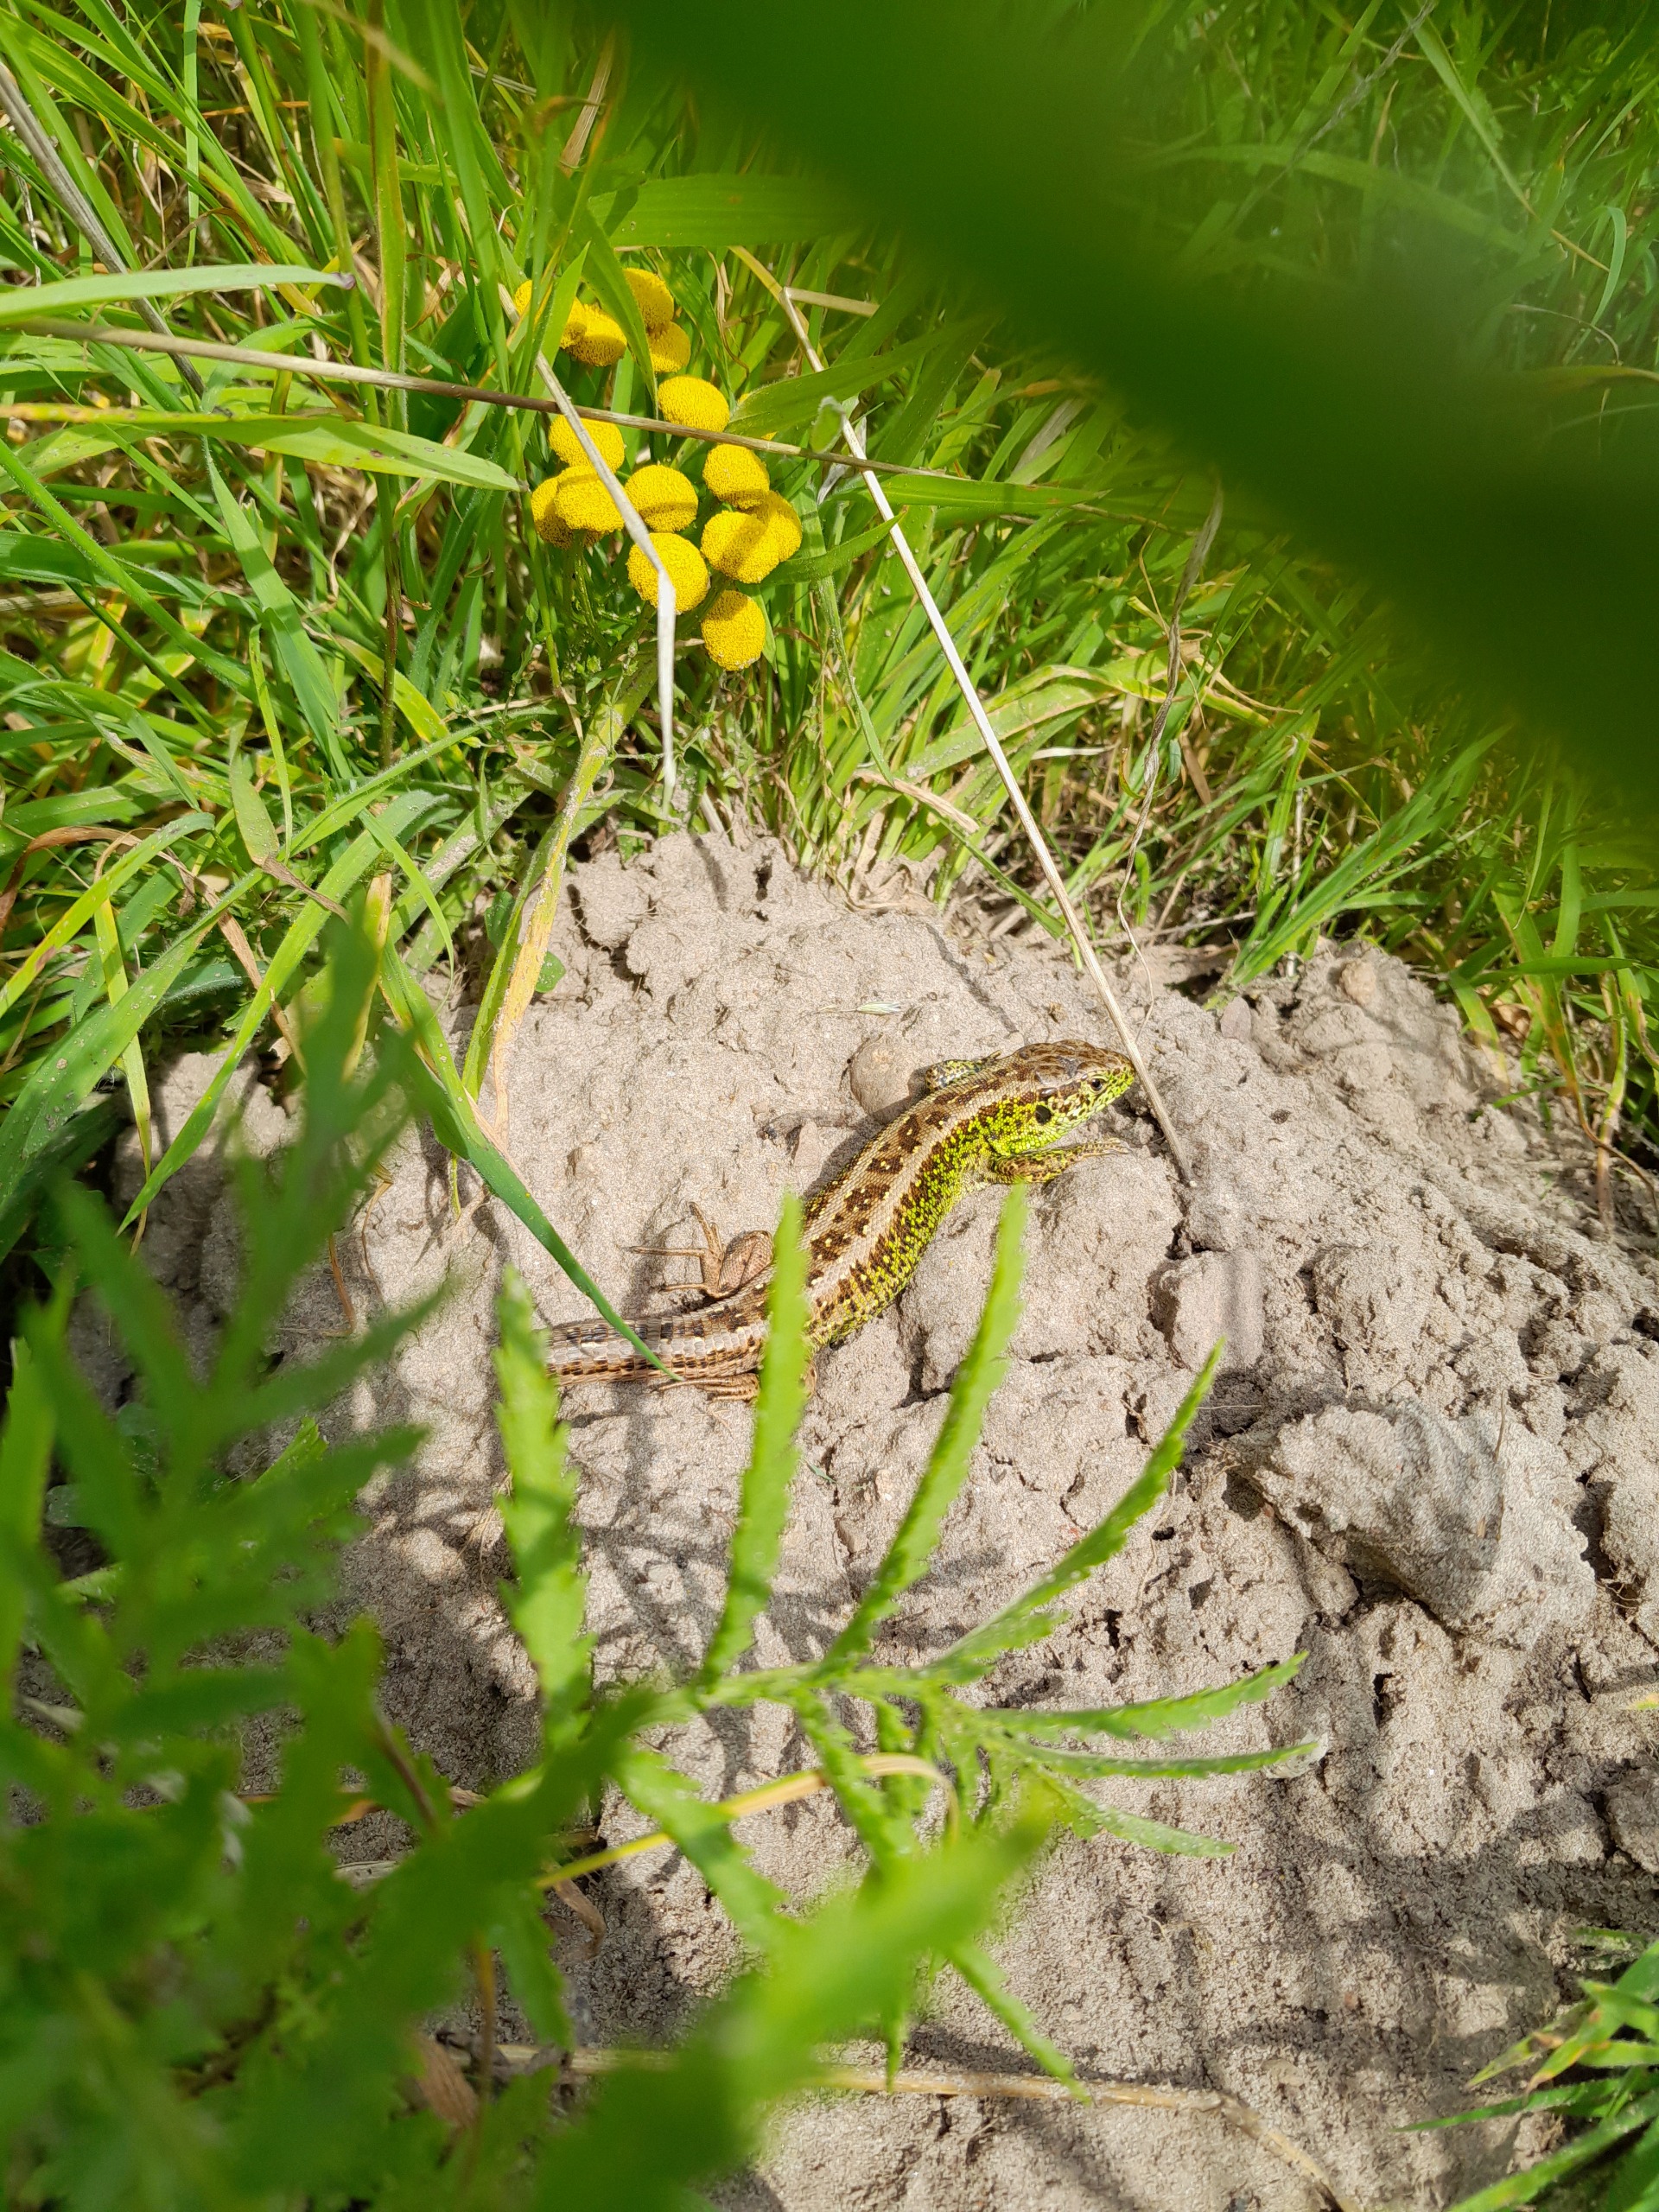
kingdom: Animalia
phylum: Chordata
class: Squamata
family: Lacertidae
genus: Lacerta
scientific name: Lacerta agilis
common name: Markfirben
